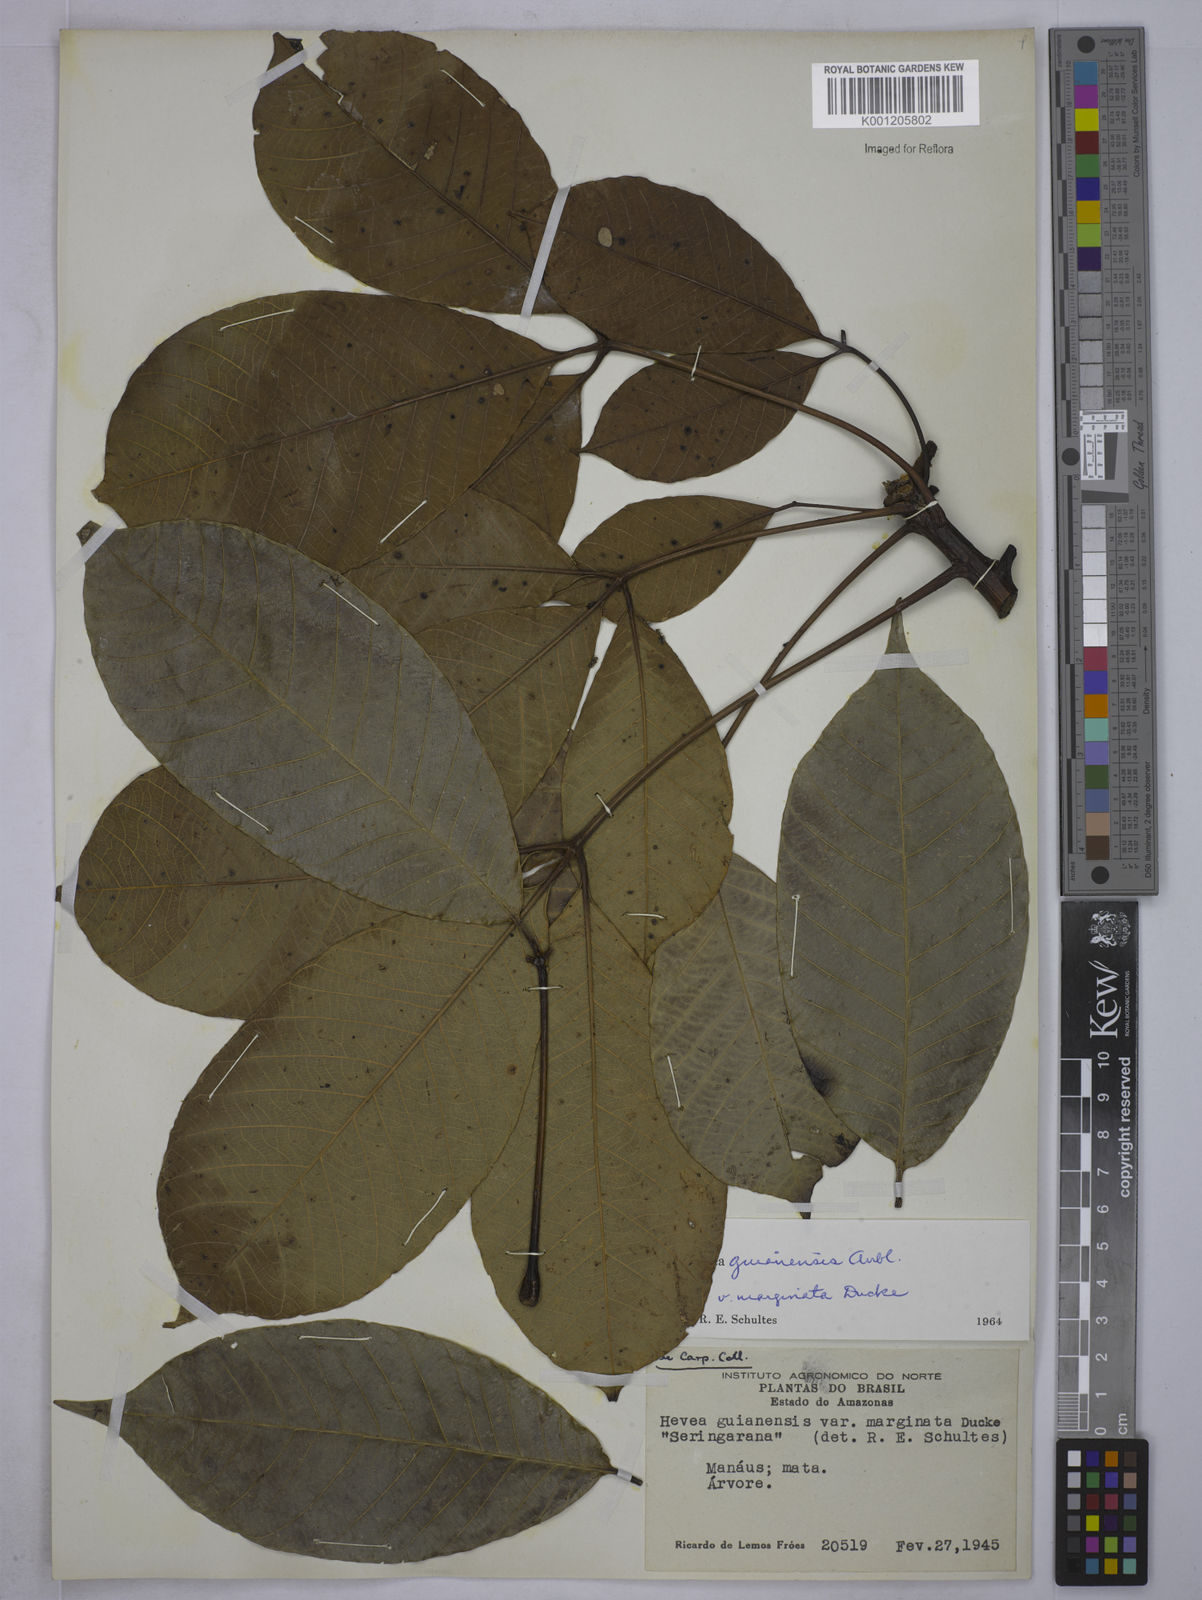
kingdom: Plantae
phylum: Tracheophyta
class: Magnoliopsida
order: Malpighiales
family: Euphorbiaceae
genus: Hevea
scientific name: Hevea guianensis
